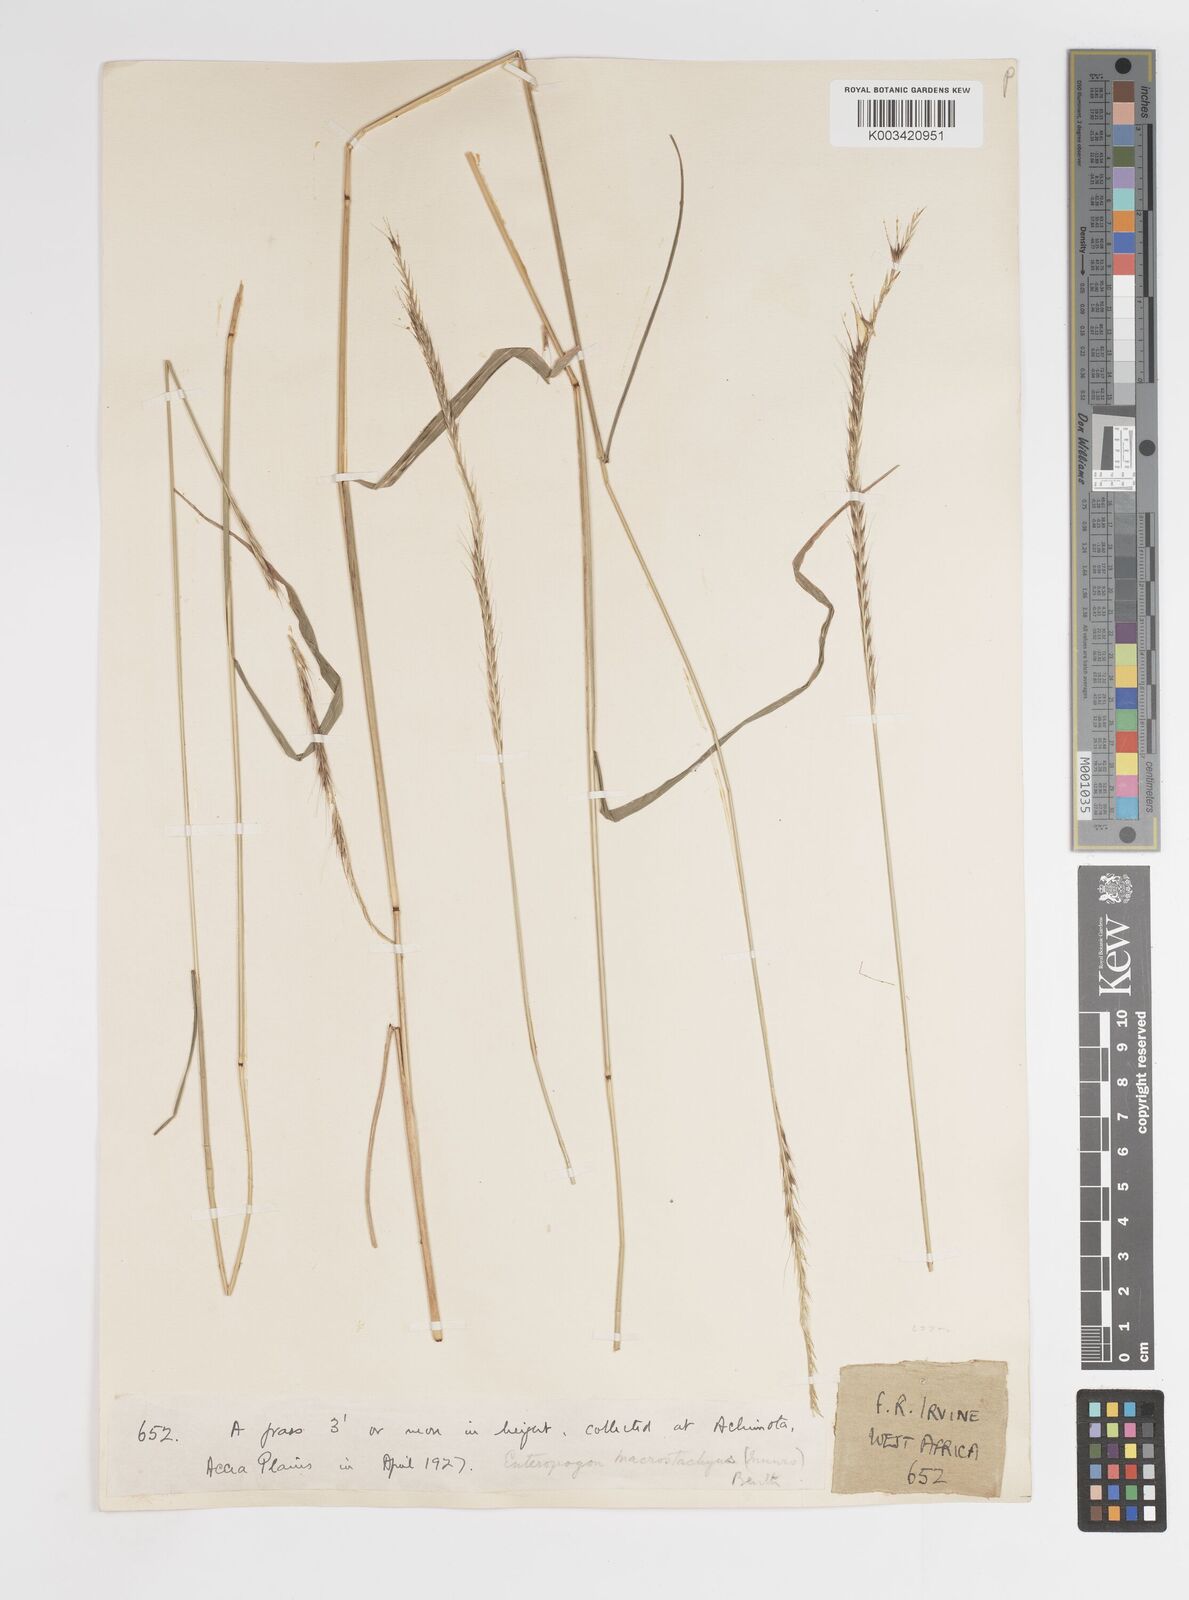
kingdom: Plantae
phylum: Tracheophyta
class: Liliopsida
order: Poales
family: Poaceae
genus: Enteropogon
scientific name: Enteropogon macrostachyus
